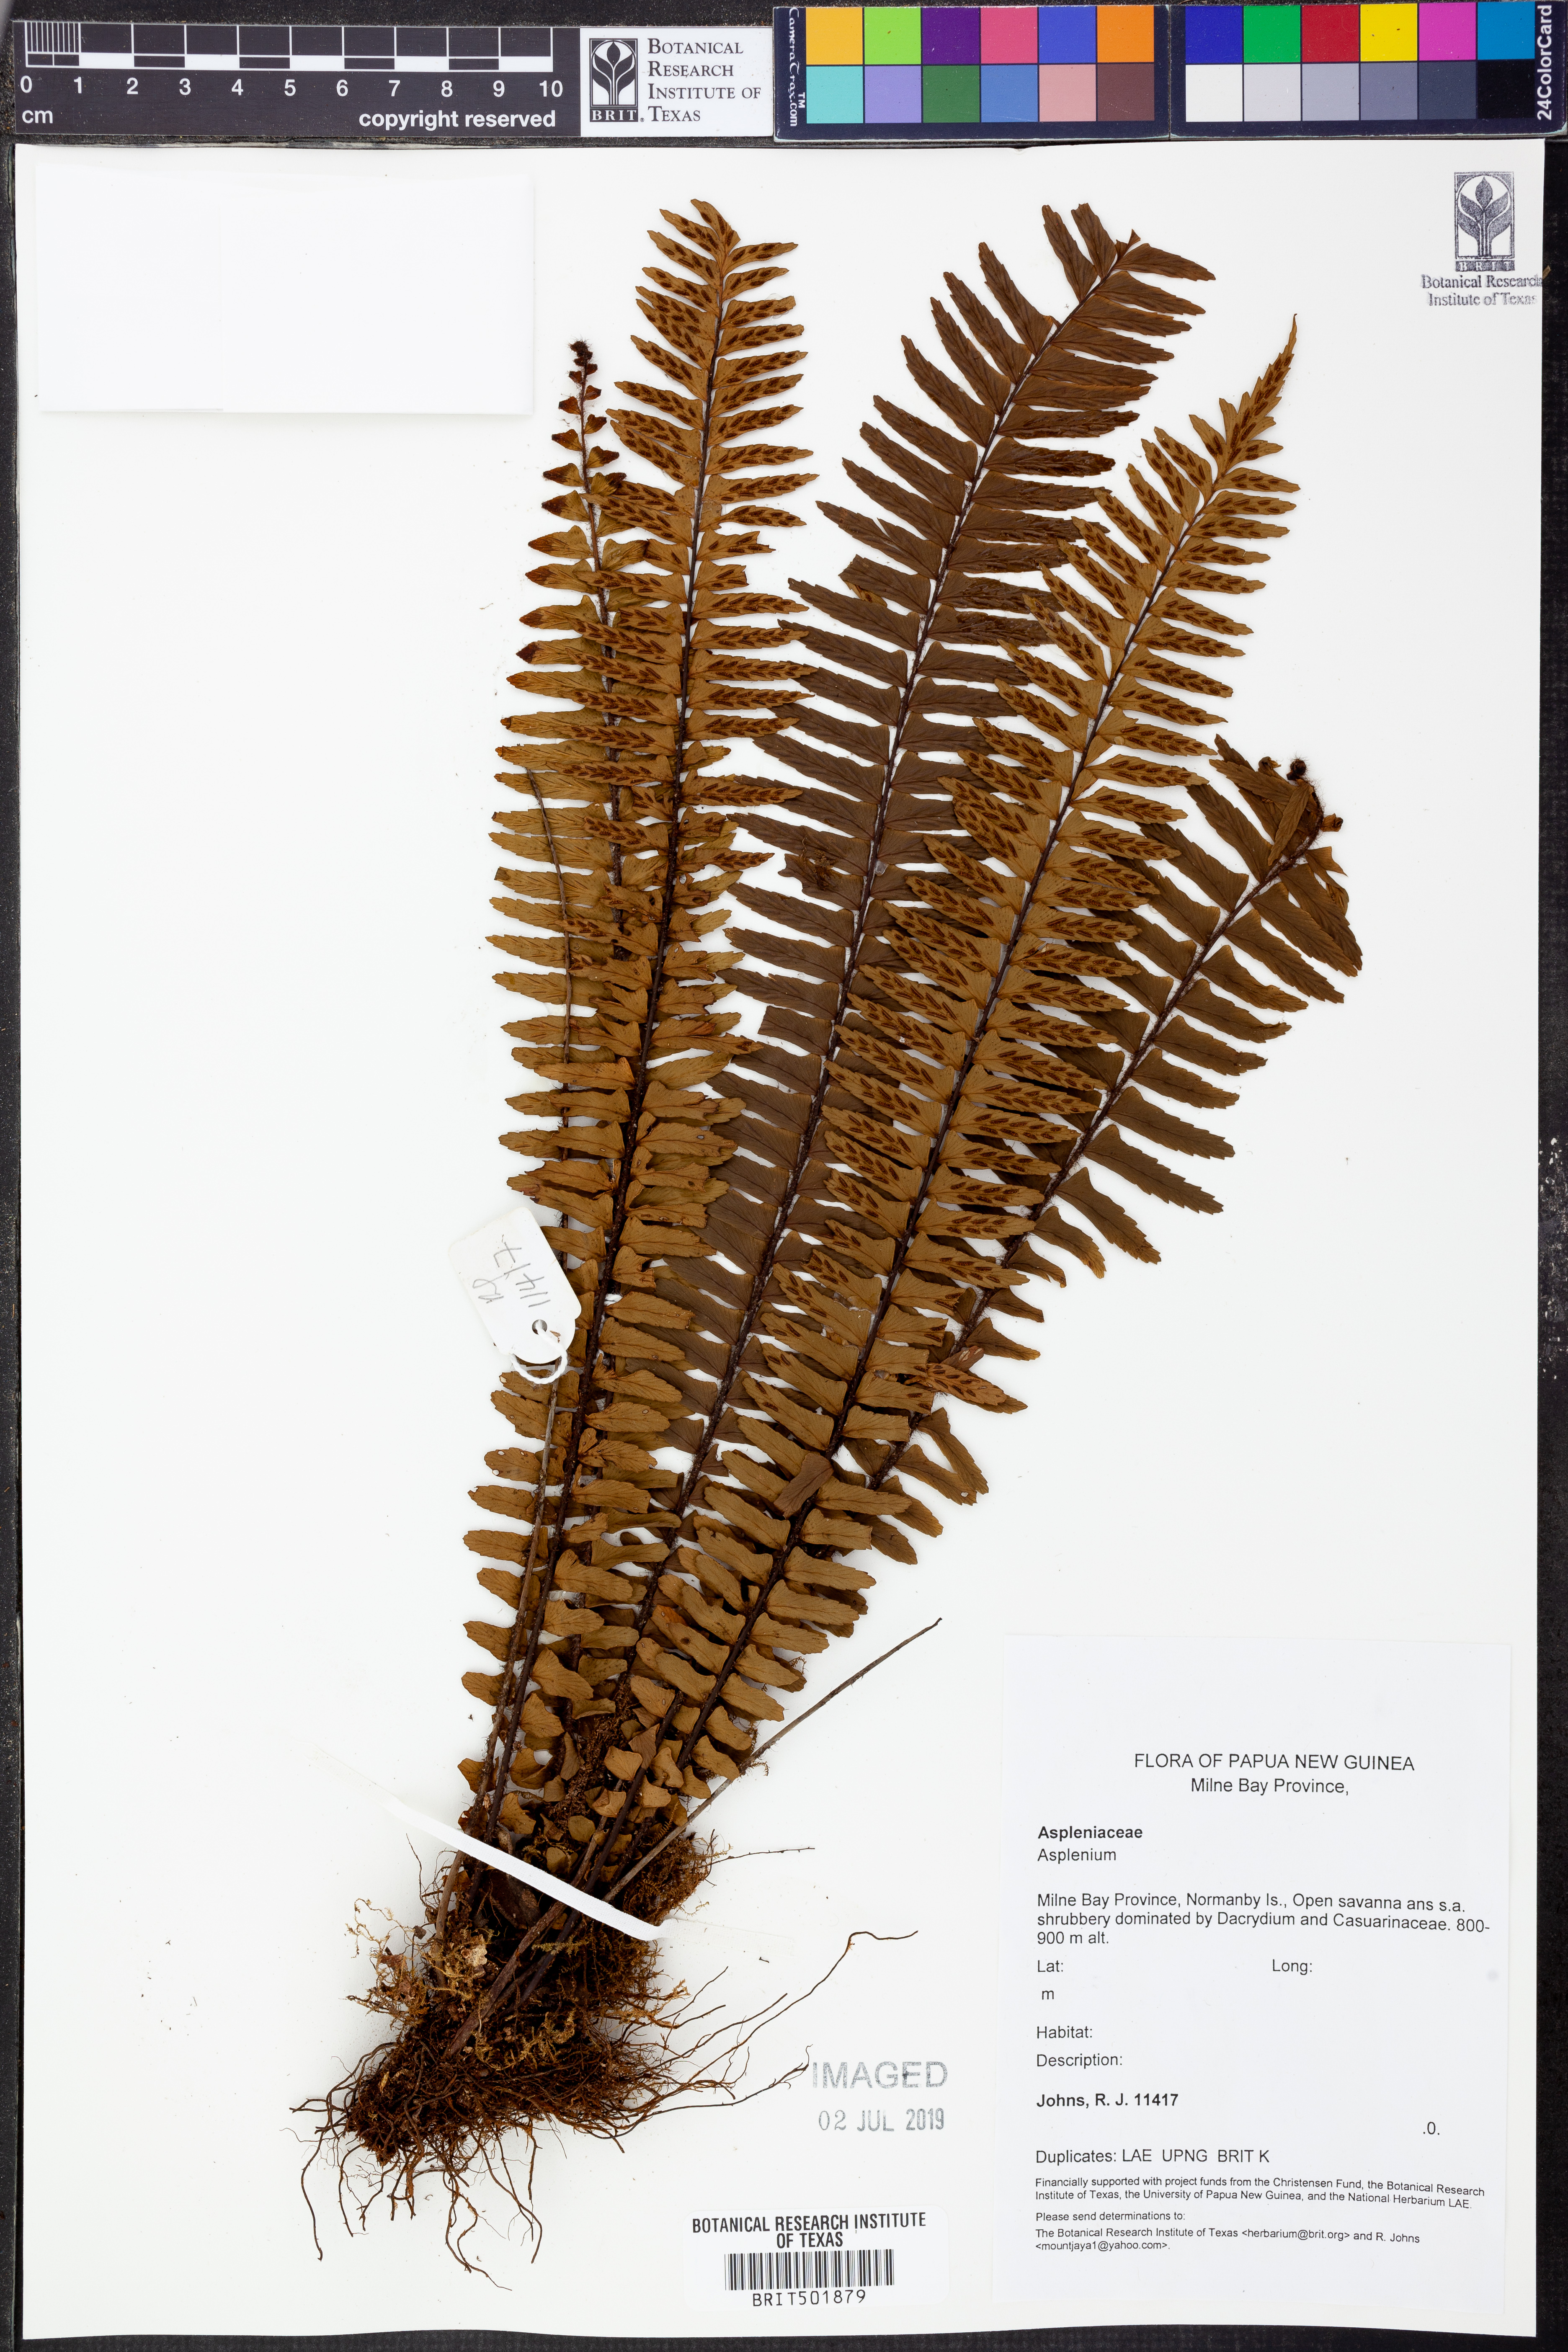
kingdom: Plantae
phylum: Tracheophyta
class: Polypodiopsida
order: Polypodiales
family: Aspleniaceae
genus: Asplenium
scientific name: Asplenium
